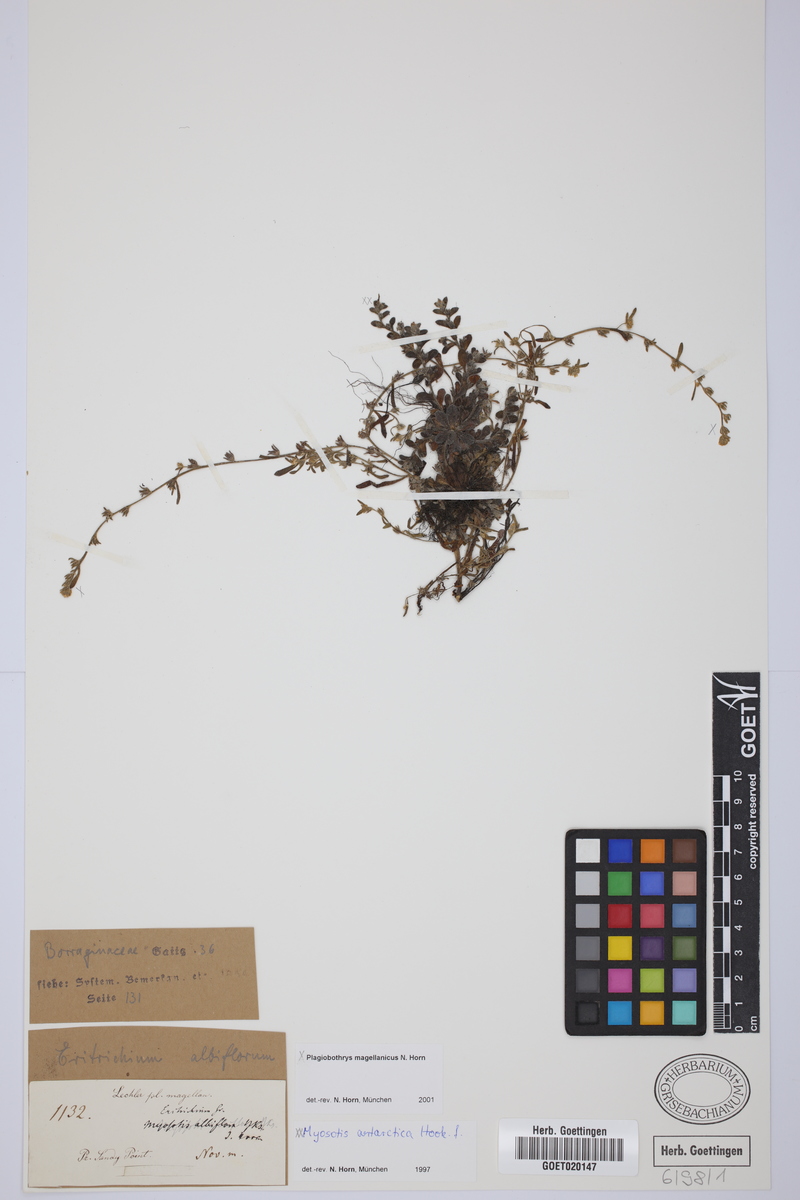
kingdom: Plantae
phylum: Tracheophyta
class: Magnoliopsida
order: Boraginales
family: Boraginaceae
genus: Myosotis
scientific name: Myosotis antarctica
